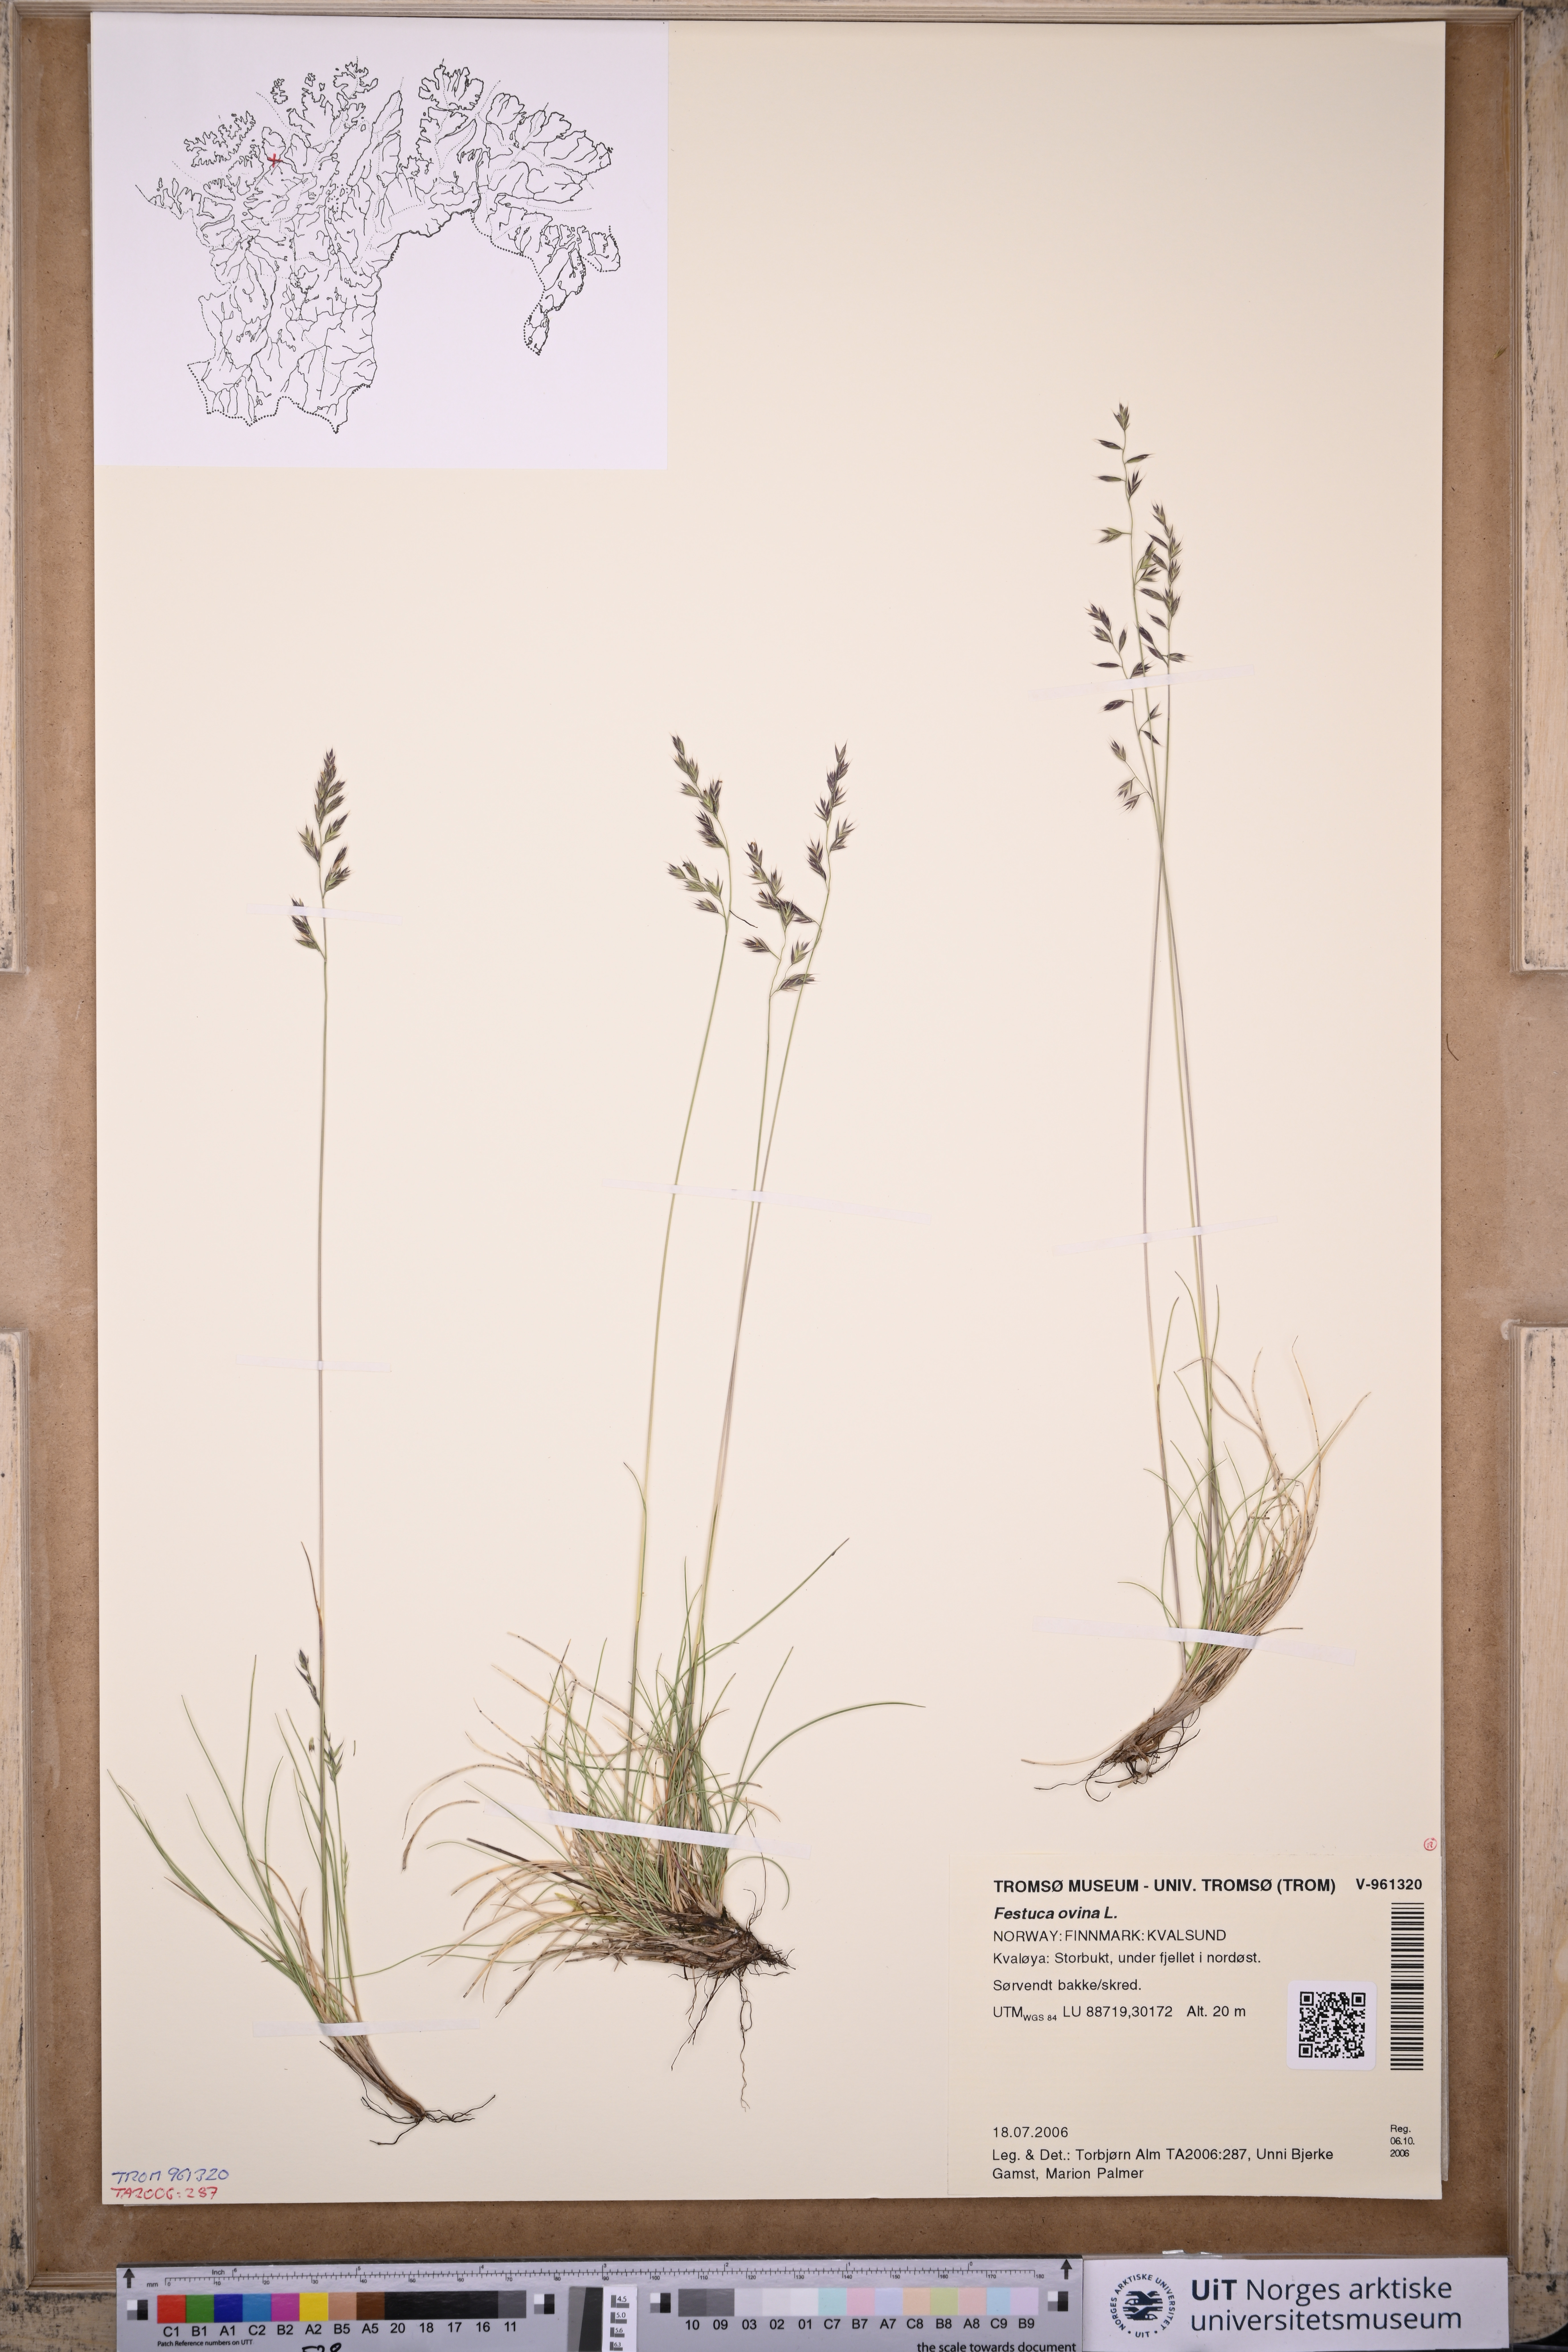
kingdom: Plantae
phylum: Tracheophyta
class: Liliopsida
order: Poales
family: Poaceae
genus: Festuca
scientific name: Festuca ovina
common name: Sheep fescue
